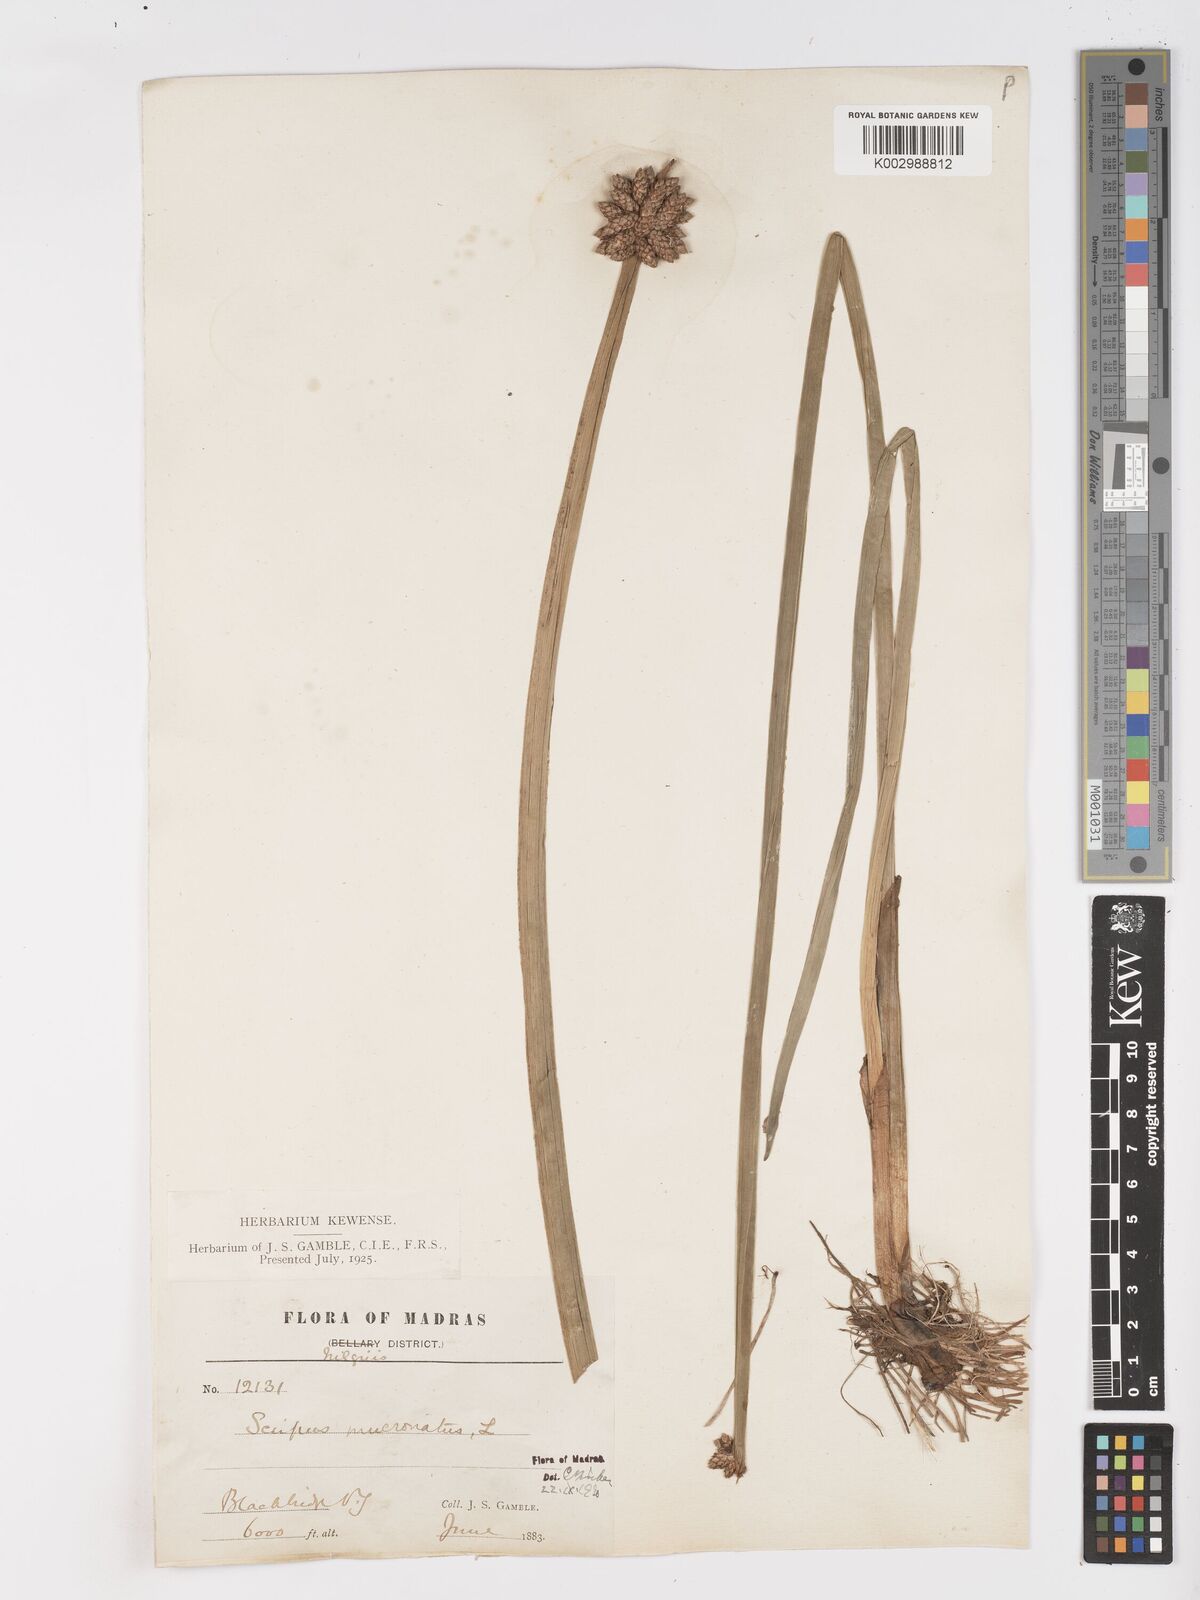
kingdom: Plantae
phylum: Tracheophyta
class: Liliopsida
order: Poales
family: Cyperaceae
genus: Schoenoplectiella
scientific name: Schoenoplectiella mucronata
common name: Bog bulrush
